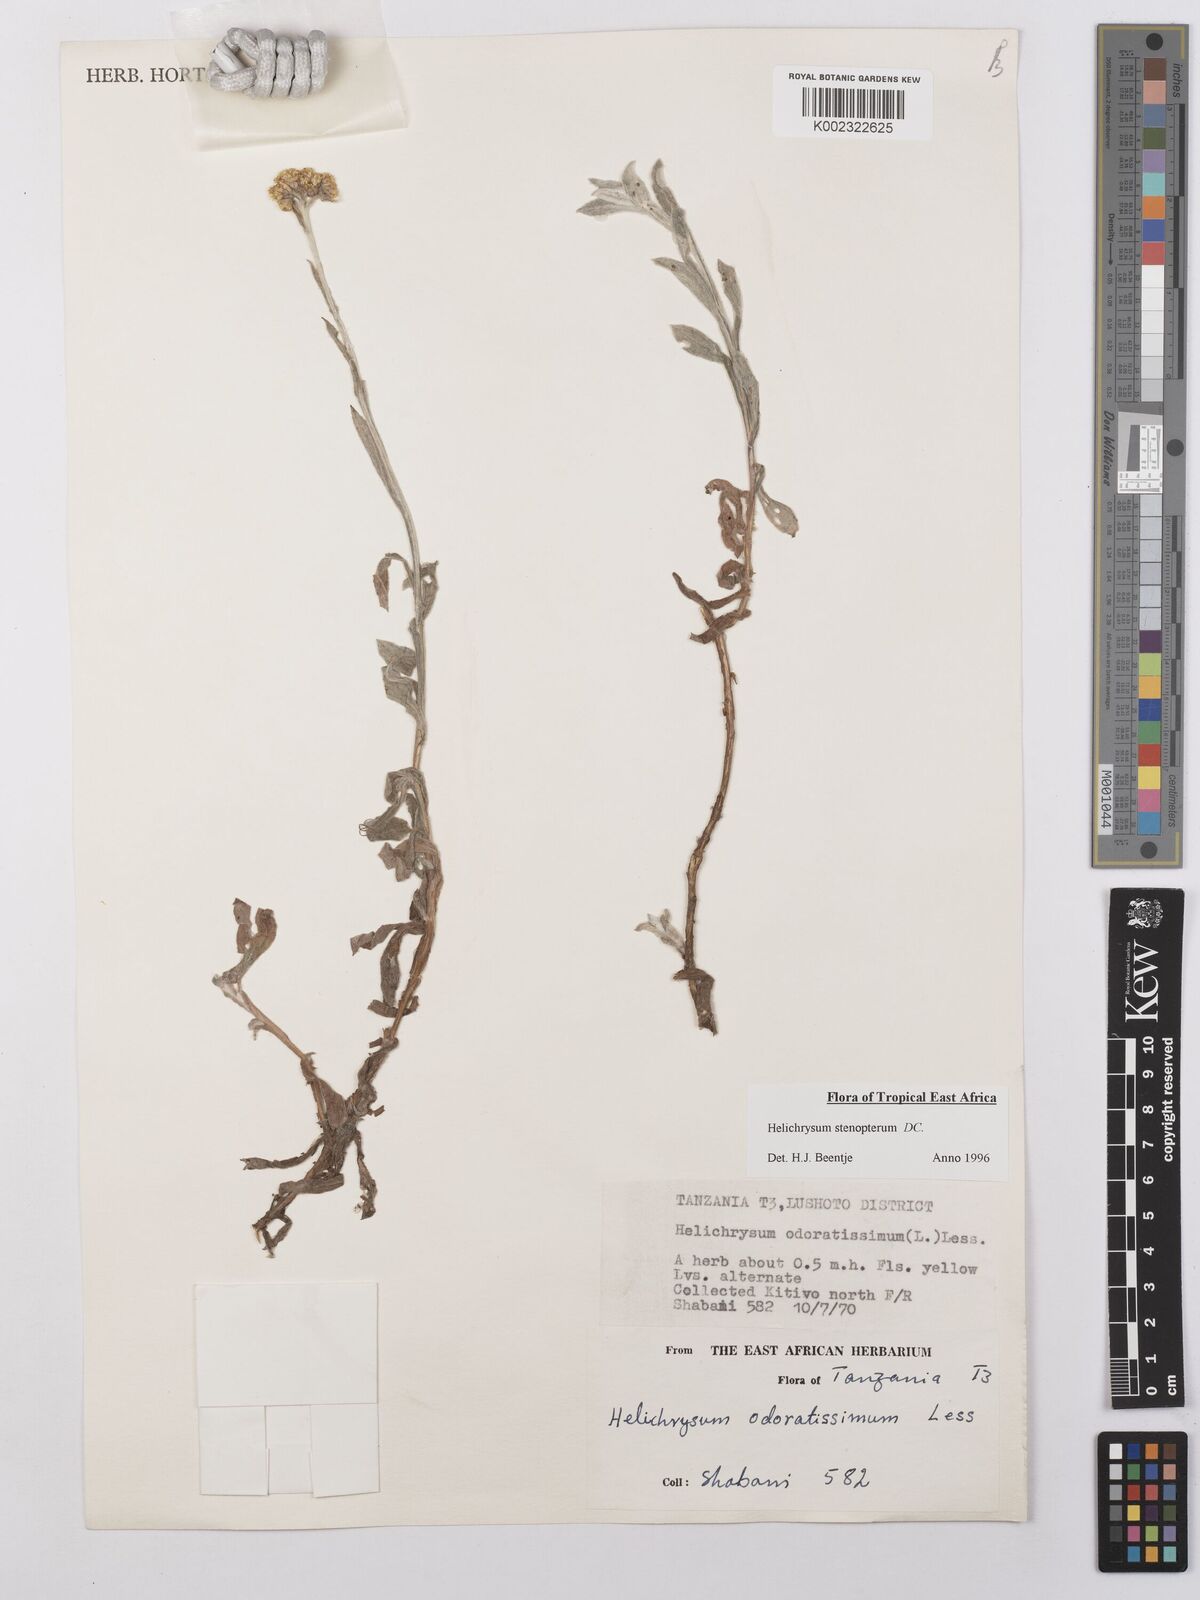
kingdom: Plantae
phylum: Tracheophyta
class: Magnoliopsida
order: Asterales
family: Asteraceae
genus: Helichrysum
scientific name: Helichrysum stenopterum
